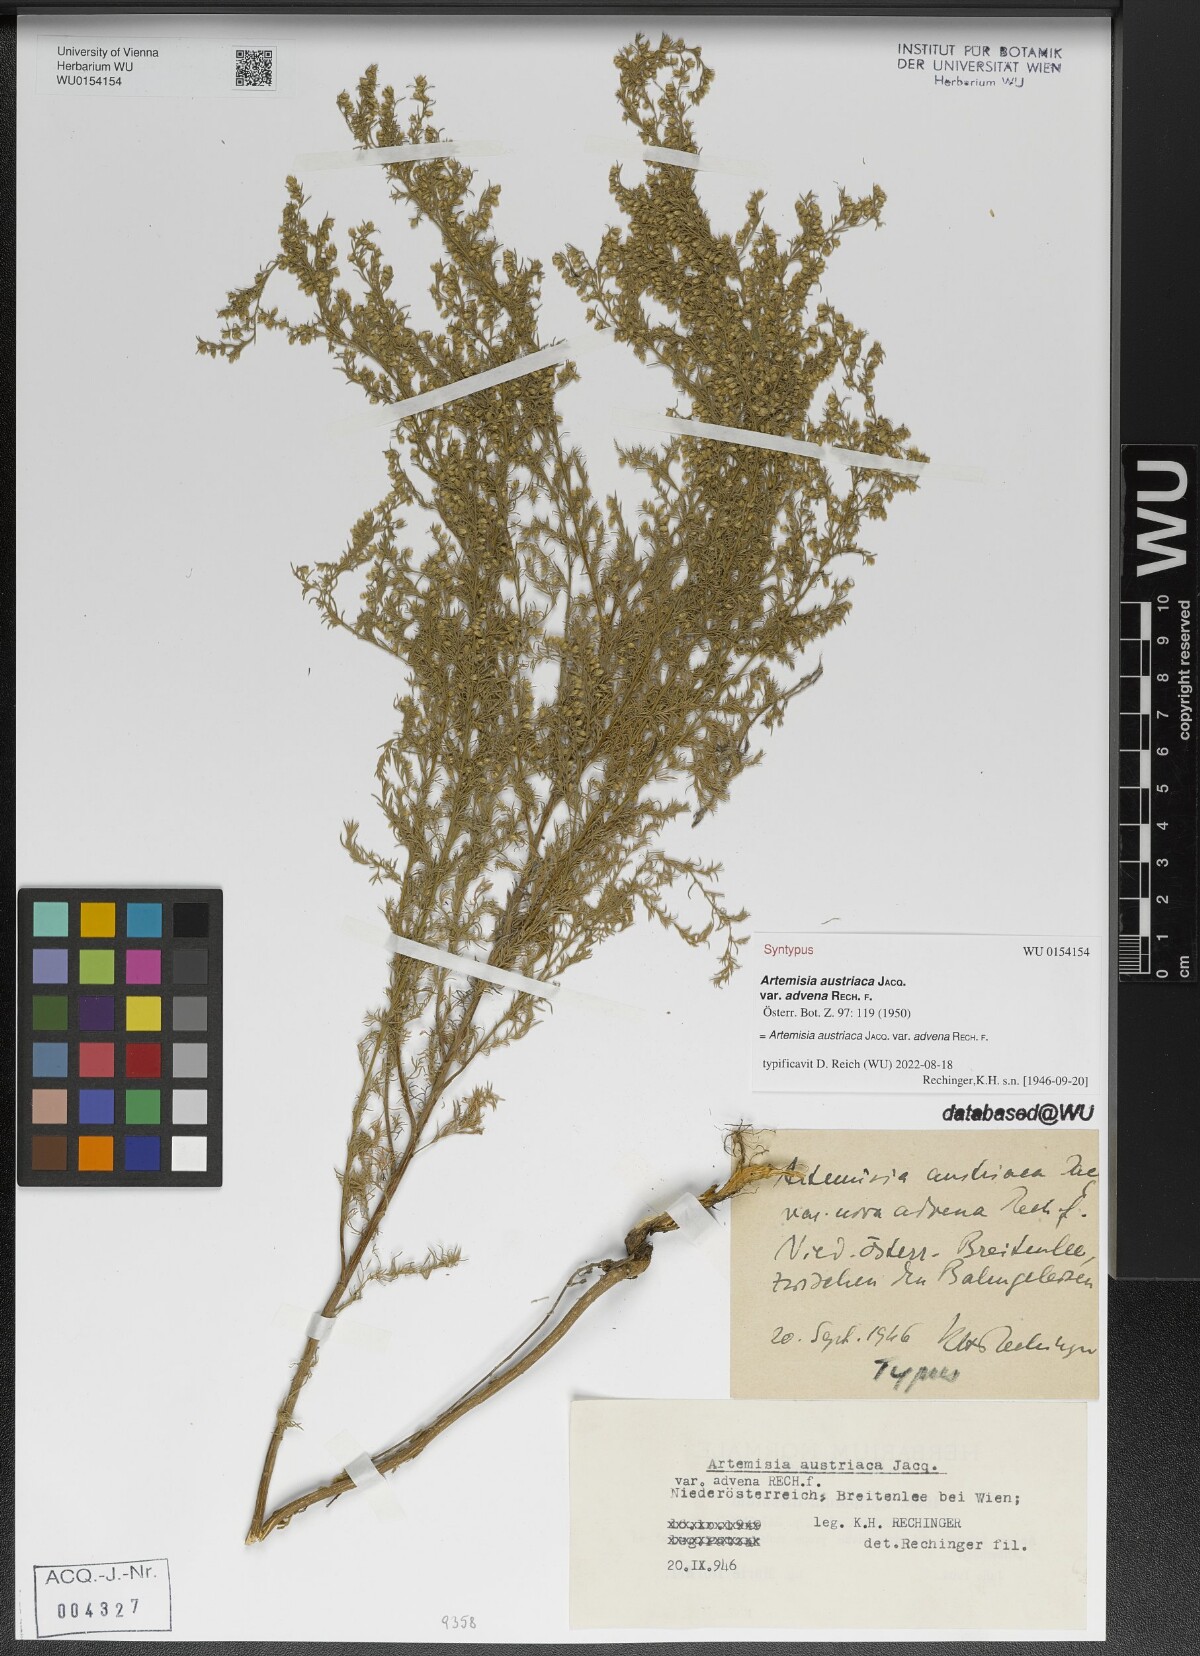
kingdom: Plantae
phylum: Tracheophyta
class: Magnoliopsida
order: Asterales
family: Asteraceae
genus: Artemisia
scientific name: Artemisia repens
